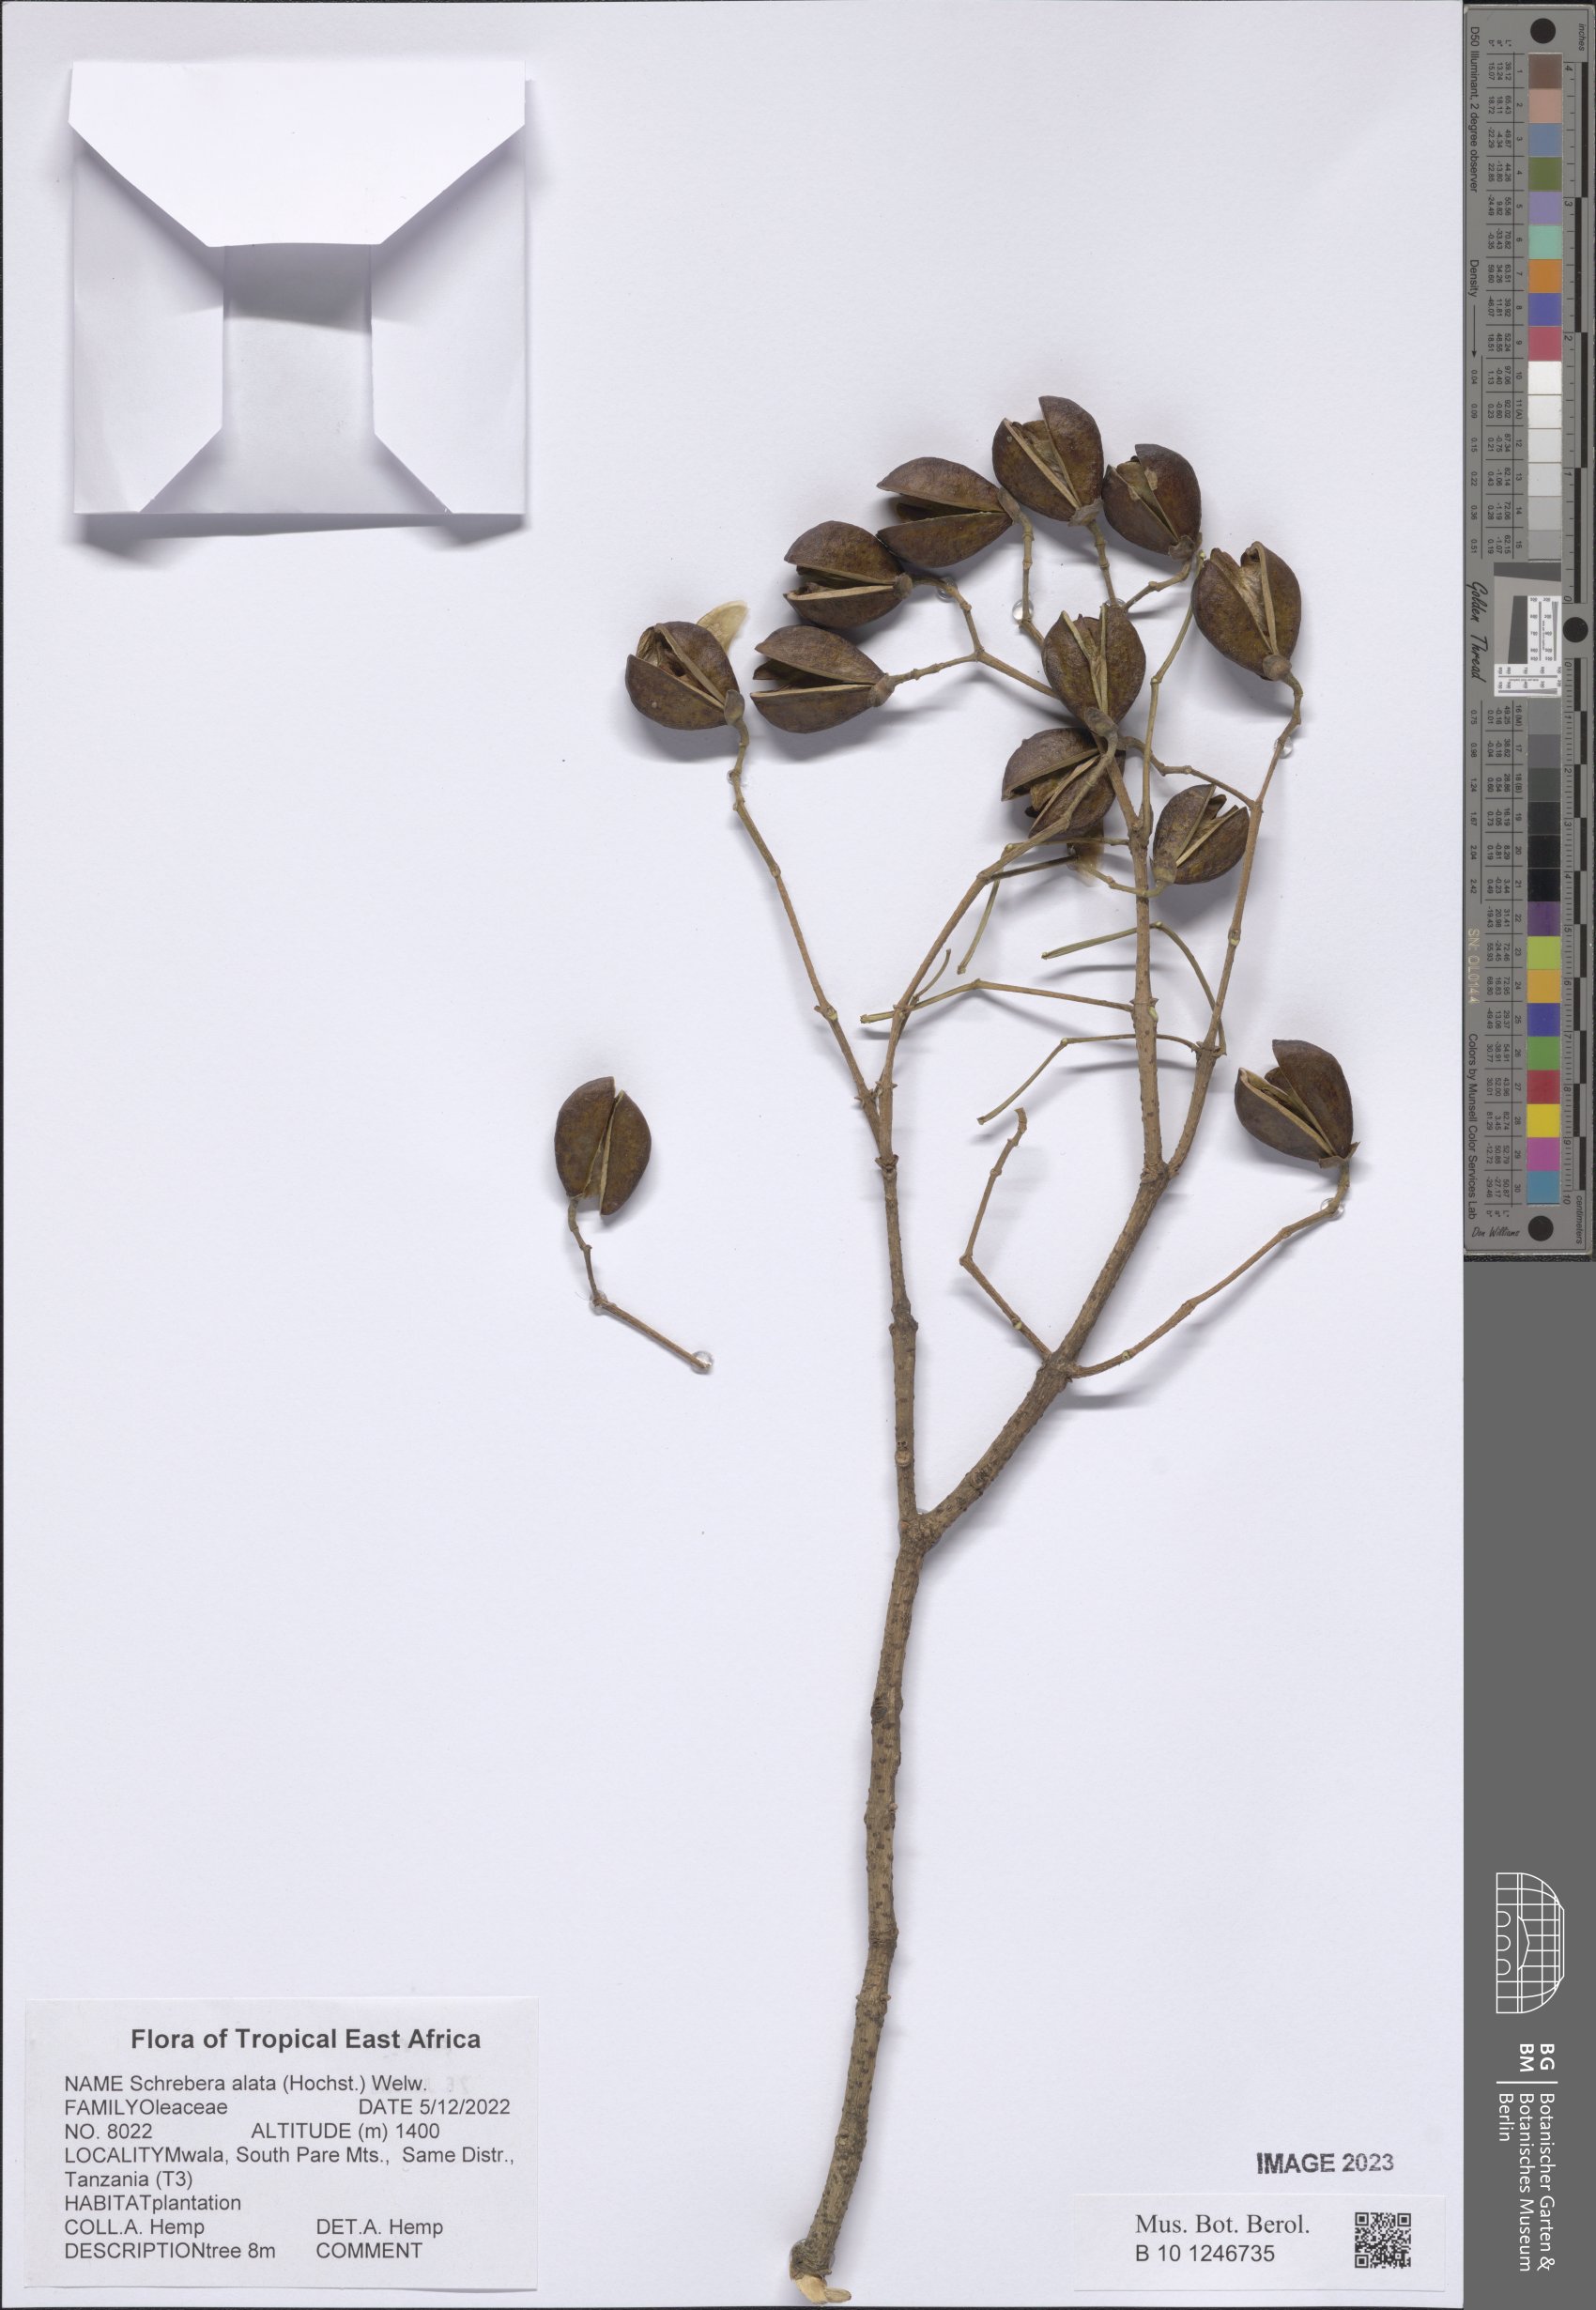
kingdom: Plantae
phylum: Tracheophyta
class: Magnoliopsida
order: Lamiales
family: Oleaceae
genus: Schrebera
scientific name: Schrebera alata
